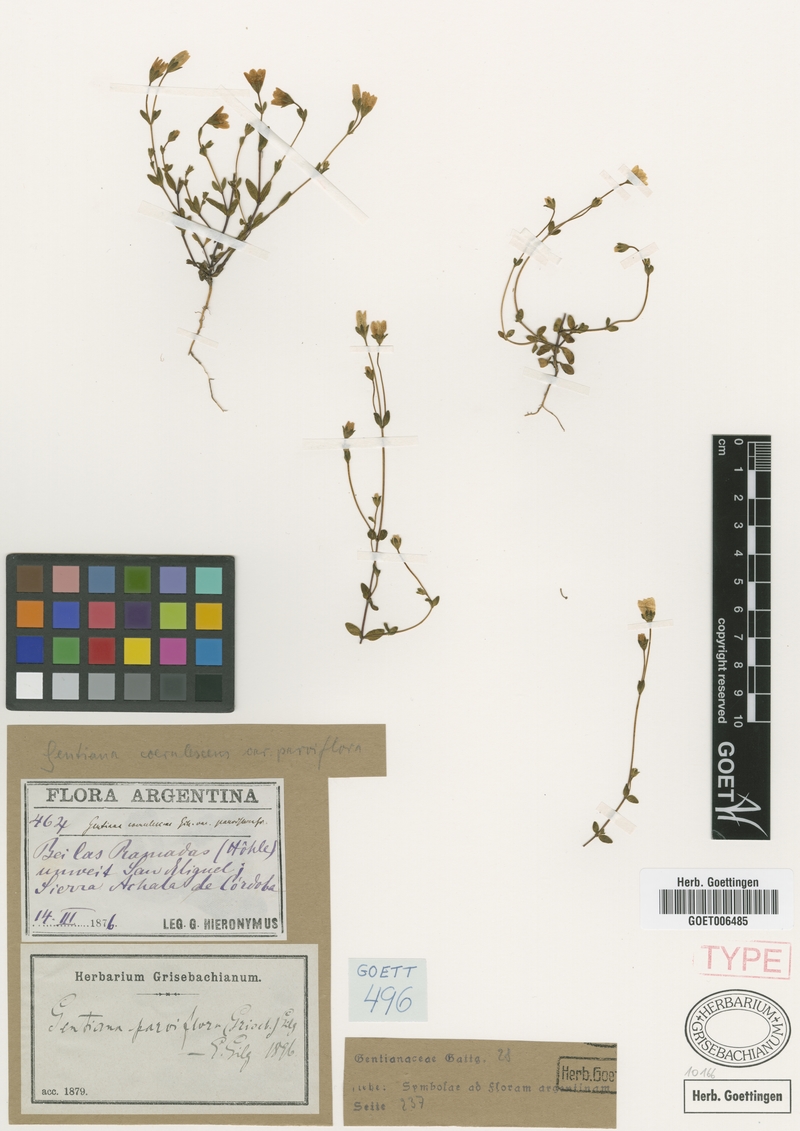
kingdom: Plantae
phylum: Tracheophyta
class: Magnoliopsida
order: Gentianales
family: Gentianaceae
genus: Gentianella
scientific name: Gentianella parviflora
